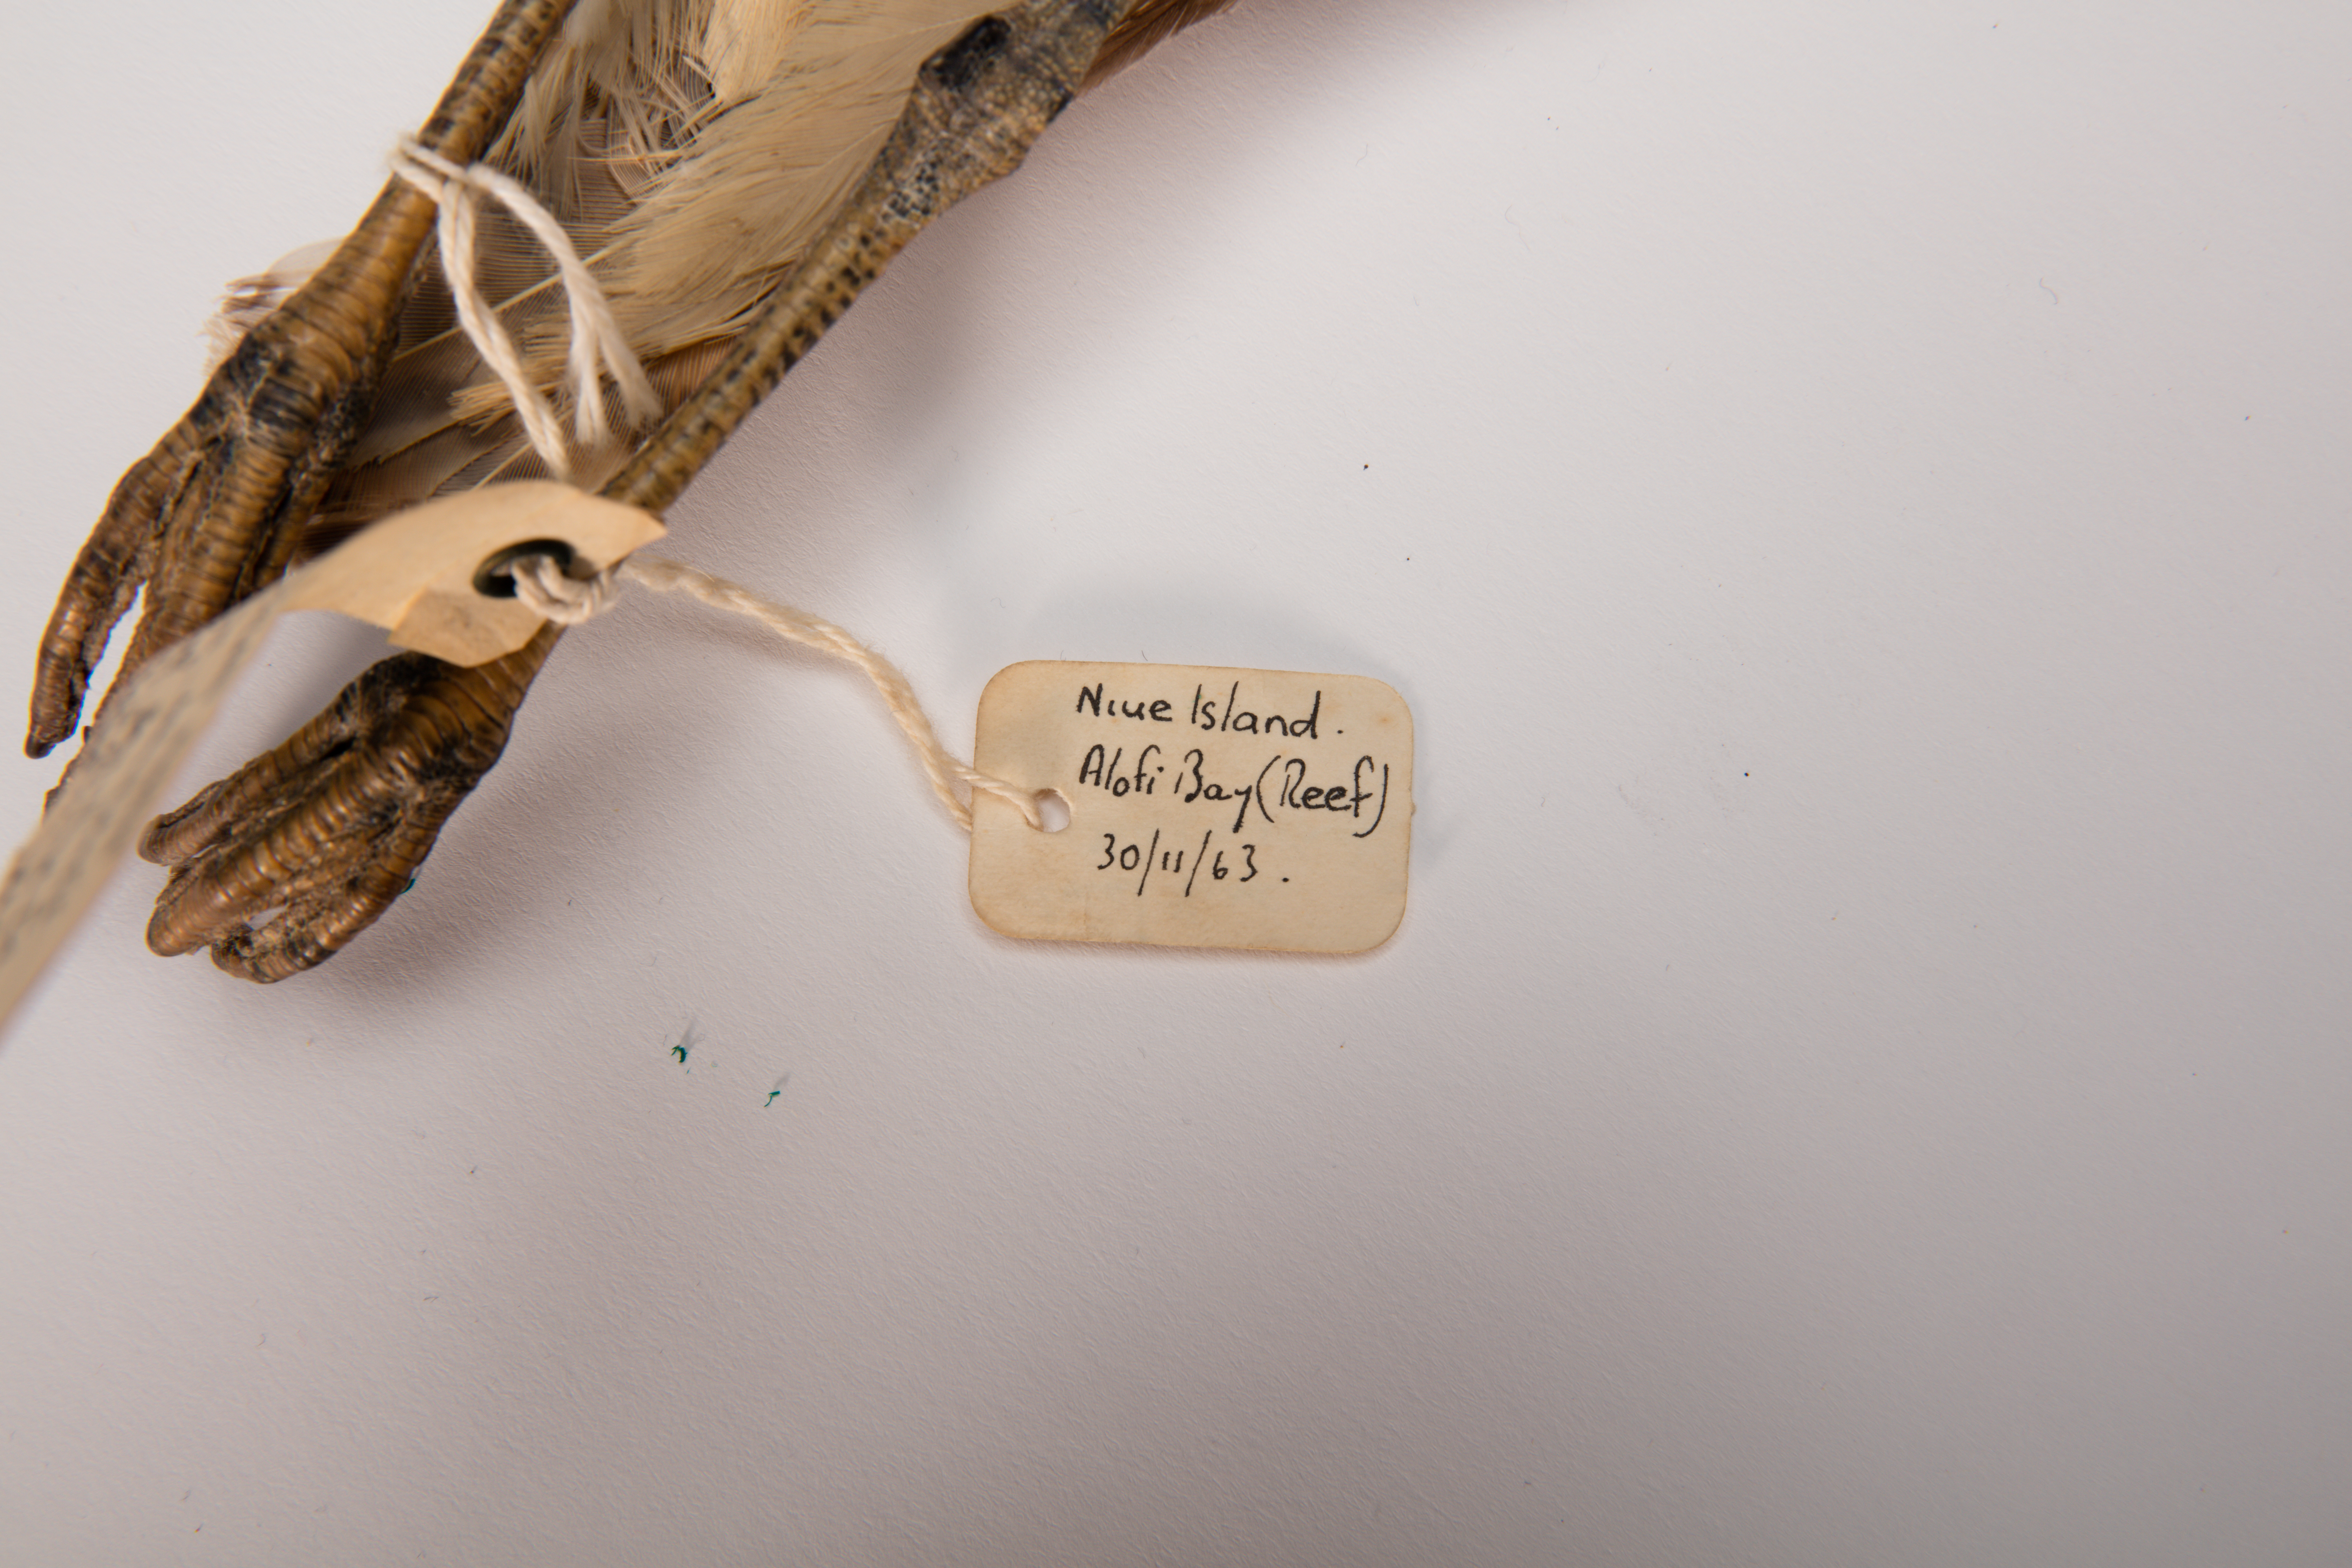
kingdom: Animalia
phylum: Chordata
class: Aves
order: Charadriiformes
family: Scolopacidae
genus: Numenius
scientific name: Numenius tahitiensis
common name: Bristle-thighed curlew
